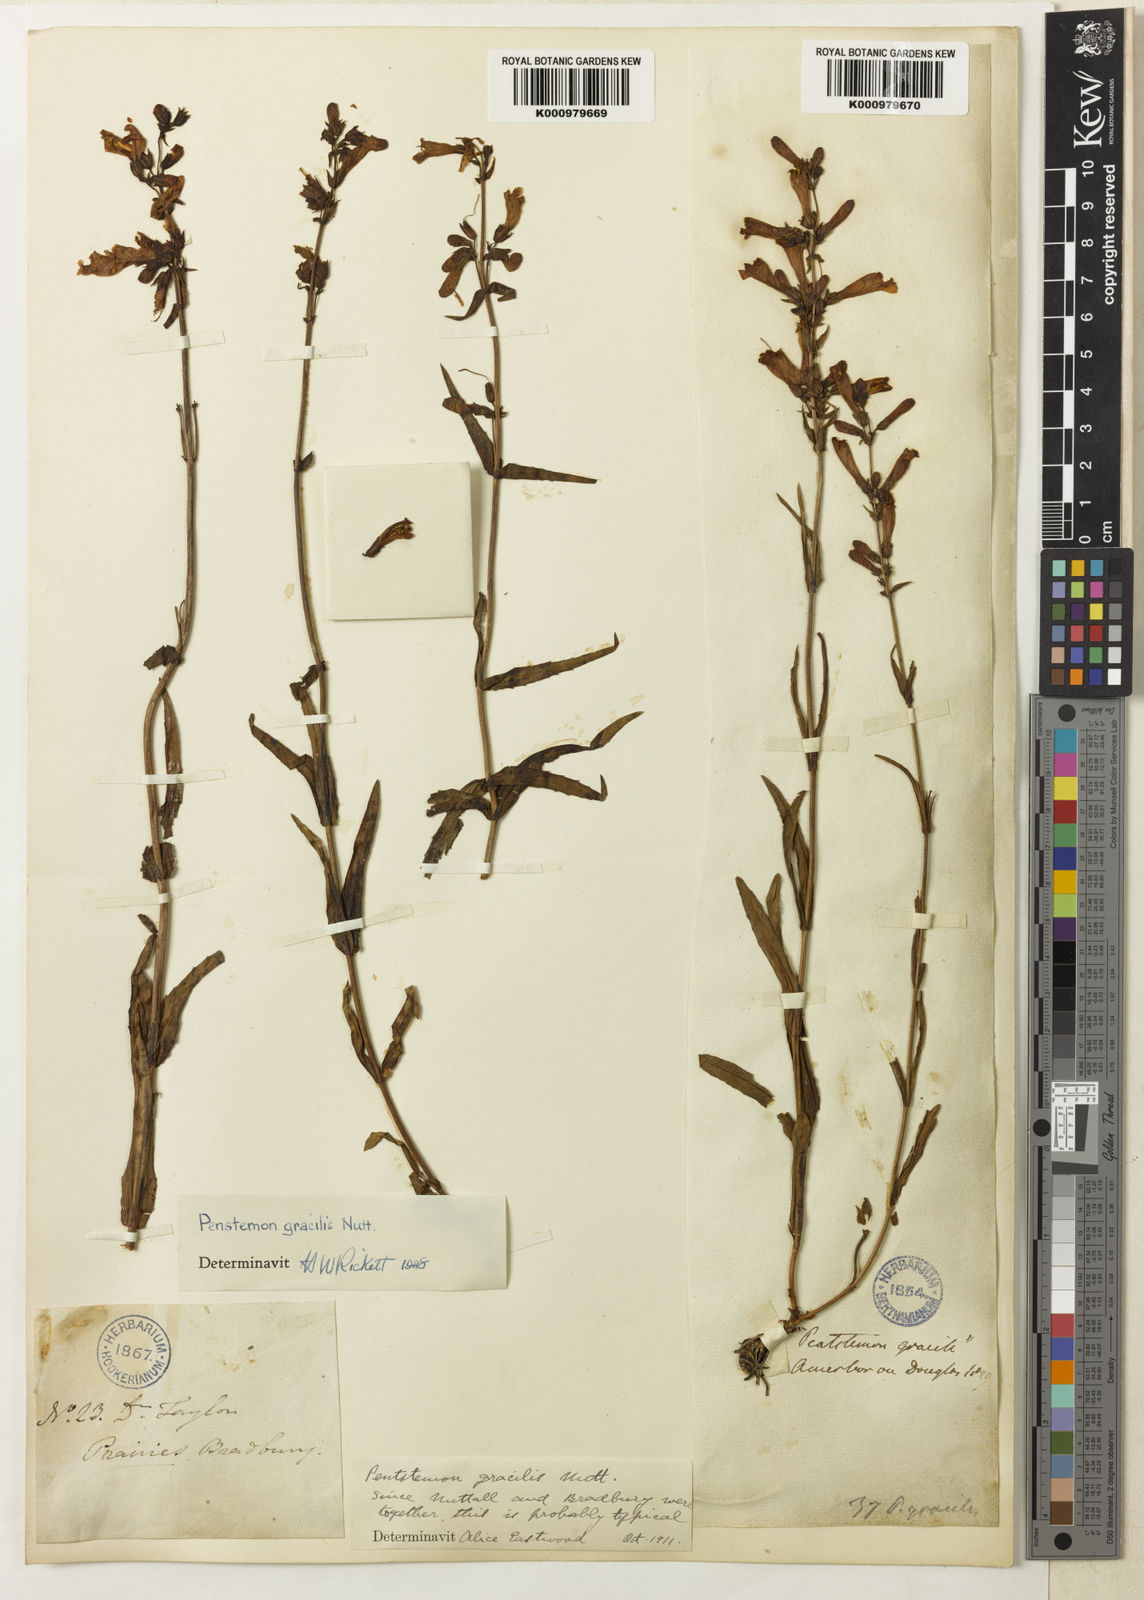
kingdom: Plantae
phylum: Tracheophyta
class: Magnoliopsida
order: Lamiales
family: Plantaginaceae
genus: Penstemon
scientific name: Penstemon gracilis
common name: Slender beardtongue
